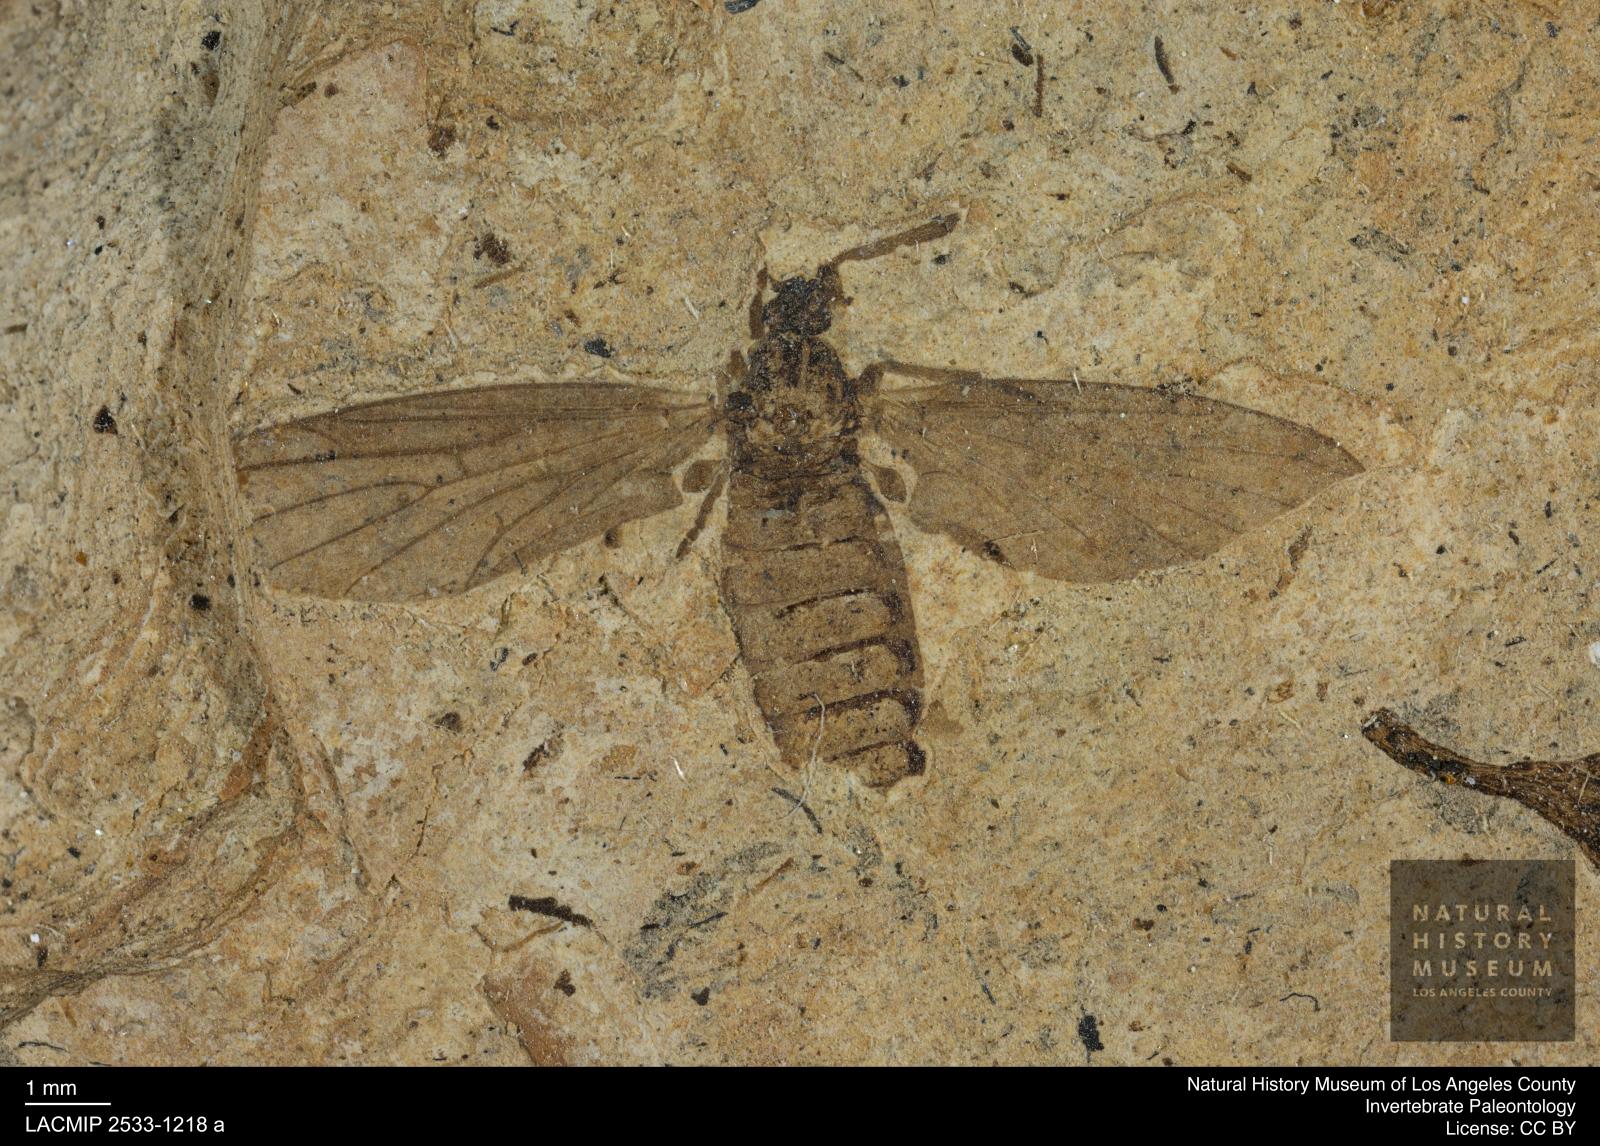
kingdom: Animalia
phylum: Arthropoda
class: Insecta
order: Diptera
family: Bibionidae
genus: Plecia
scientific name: Plecia hypogaea
